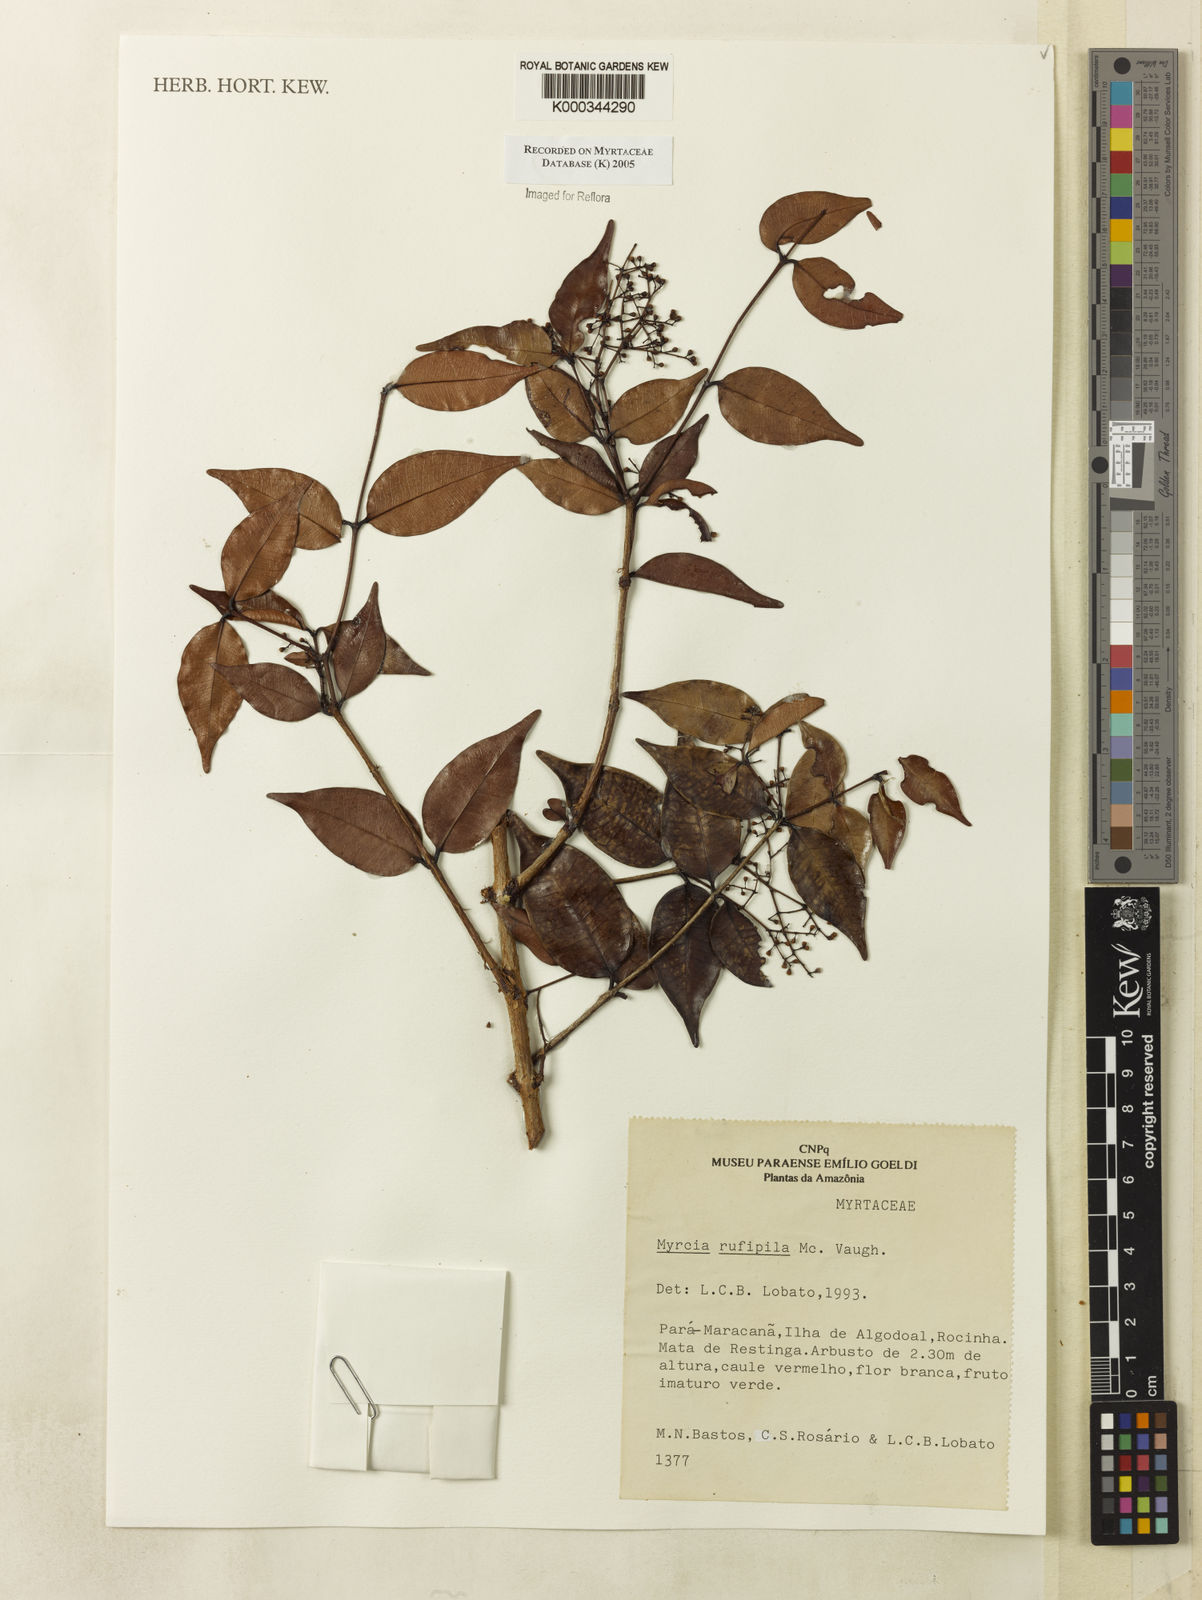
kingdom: Plantae
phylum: Tracheophyta
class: Magnoliopsida
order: Myrtales
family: Myrtaceae
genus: Myrcia
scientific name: Myrcia rufipila
